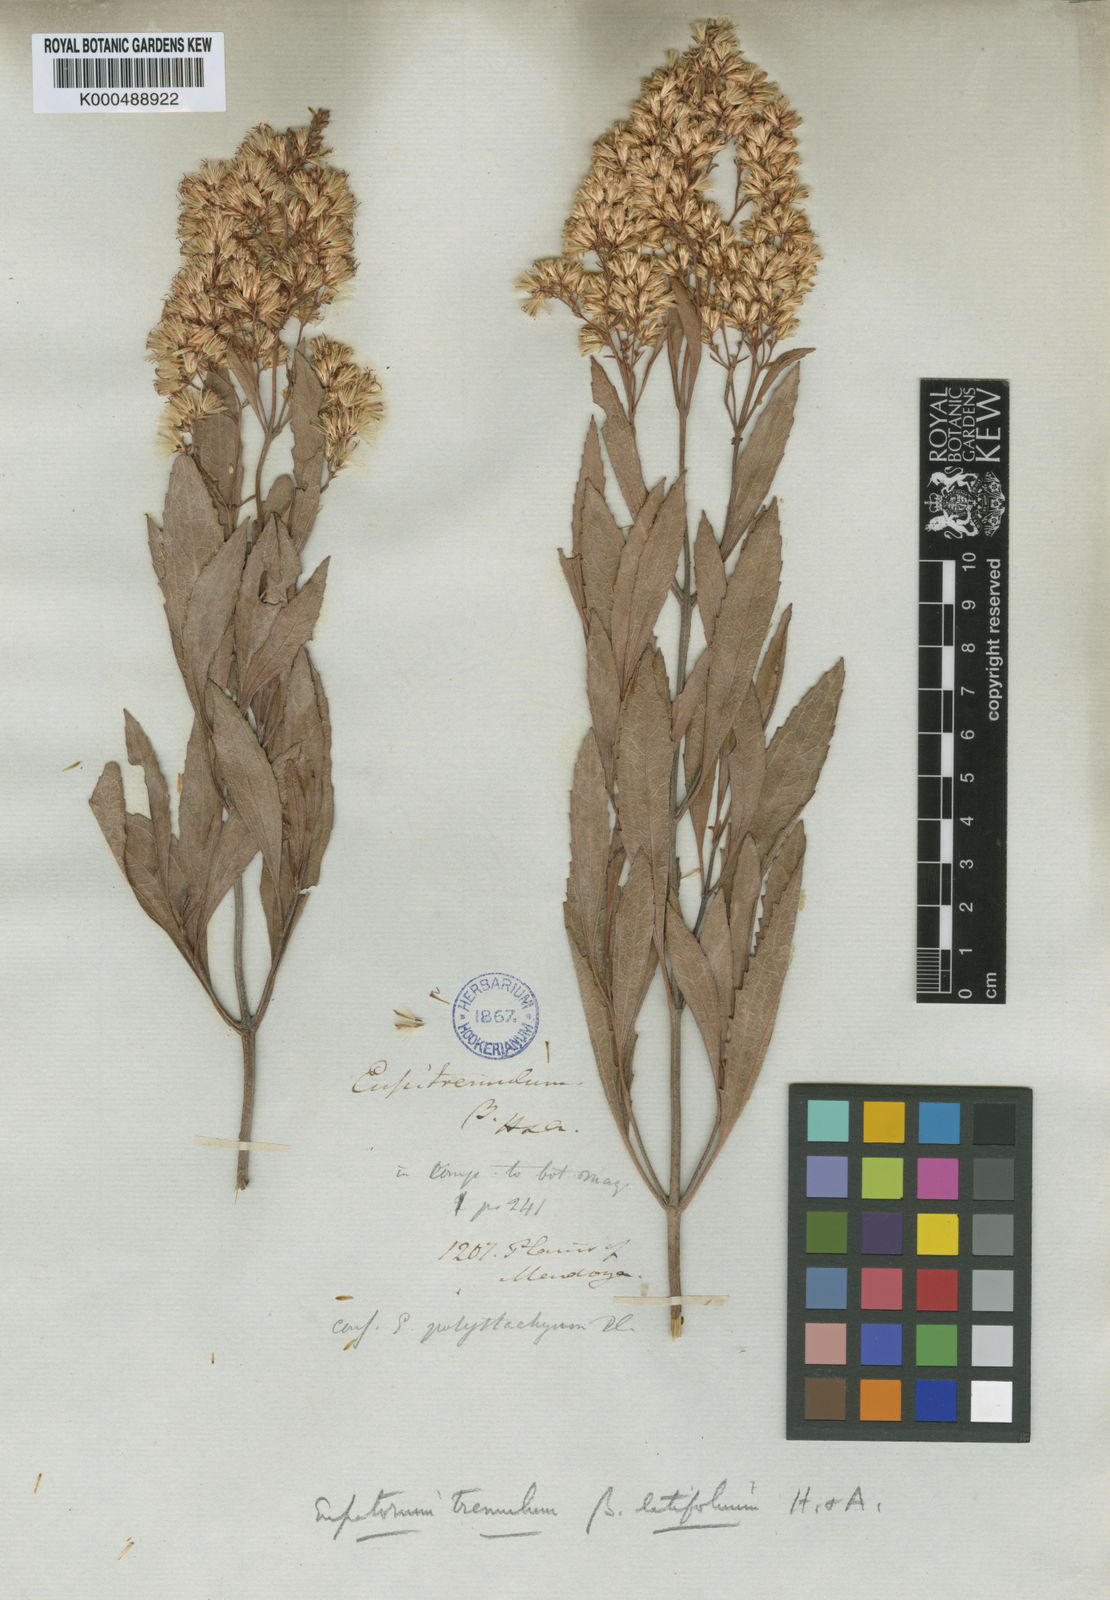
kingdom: Plantae
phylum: Tracheophyta
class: Magnoliopsida
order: Asterales
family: Asteraceae
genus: Raulinoreitzia
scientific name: Raulinoreitzia tremula
